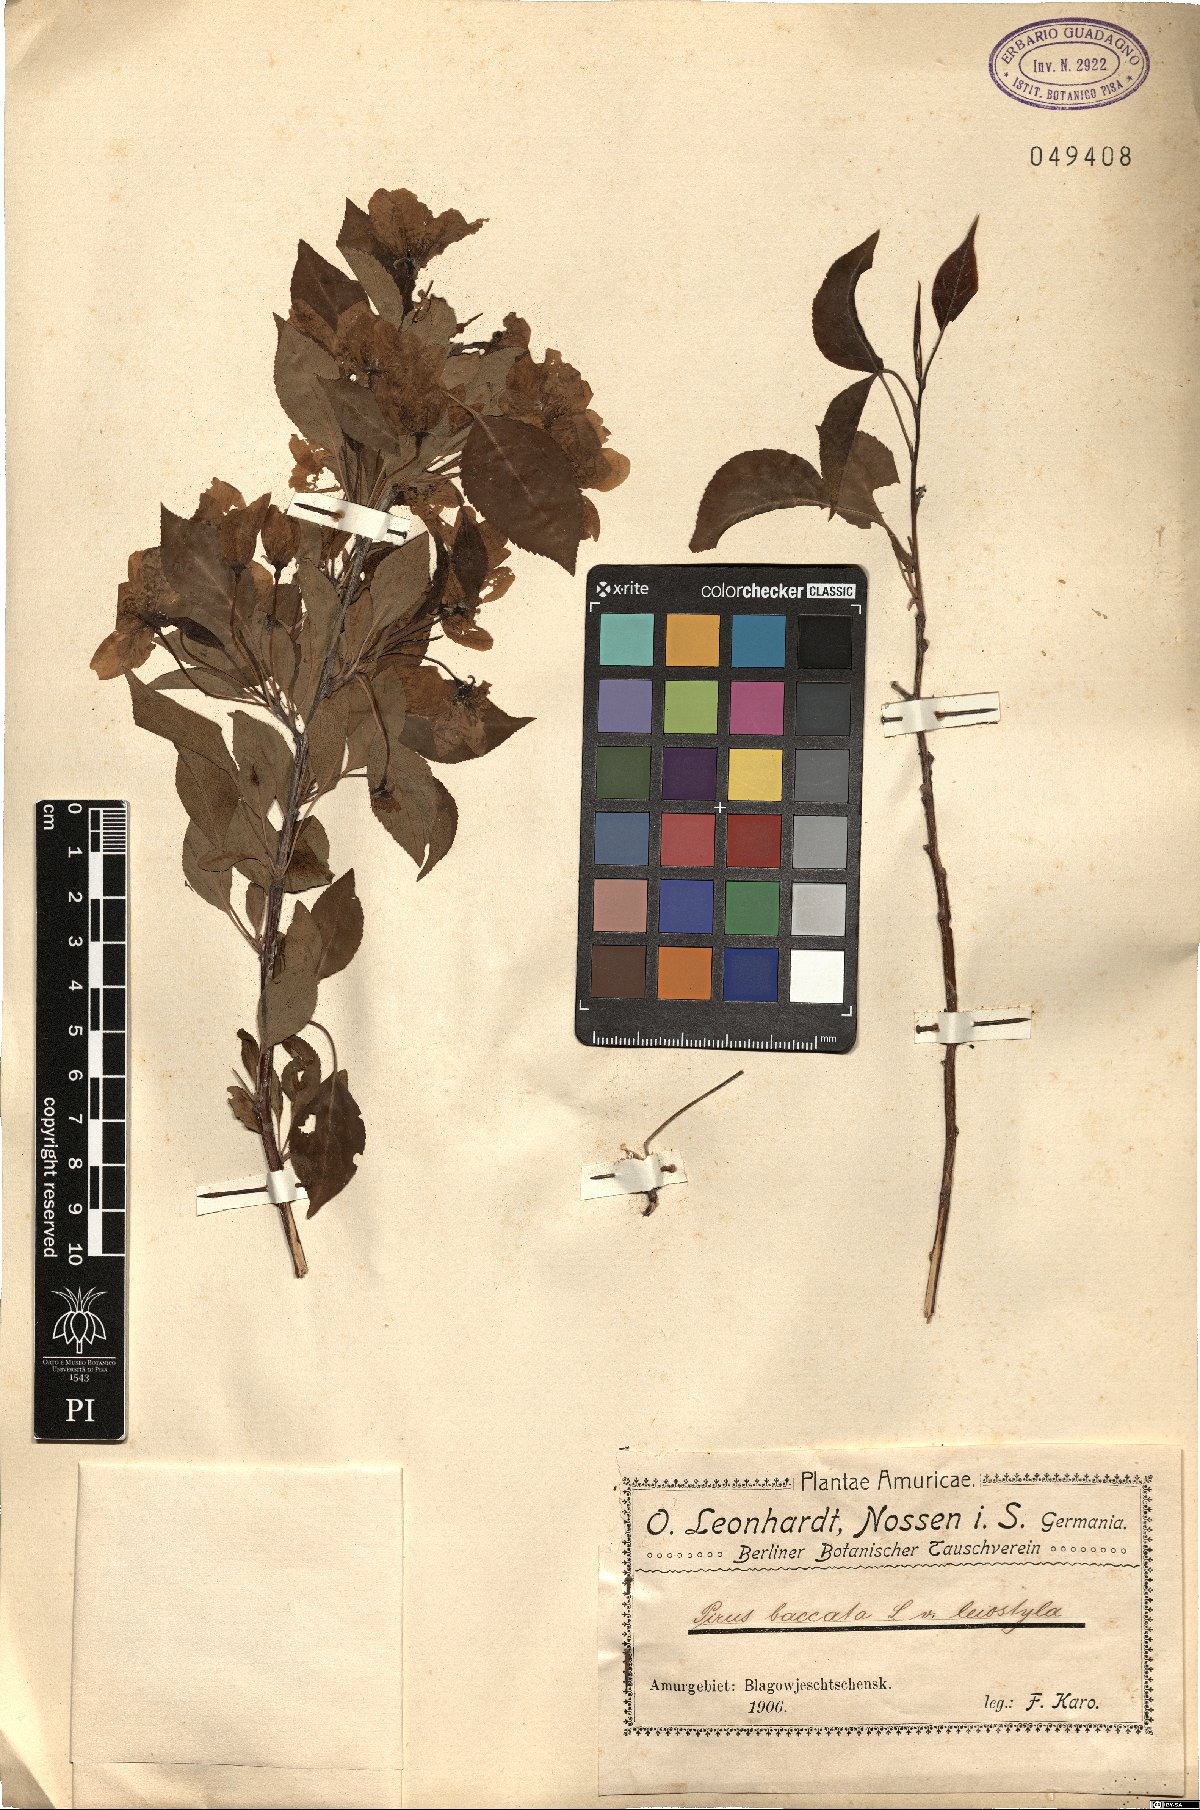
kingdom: Plantae
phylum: Tracheophyta
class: Magnoliopsida
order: Rosales
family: Rosaceae
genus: Malus
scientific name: Malus baccata
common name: Siberian crab
